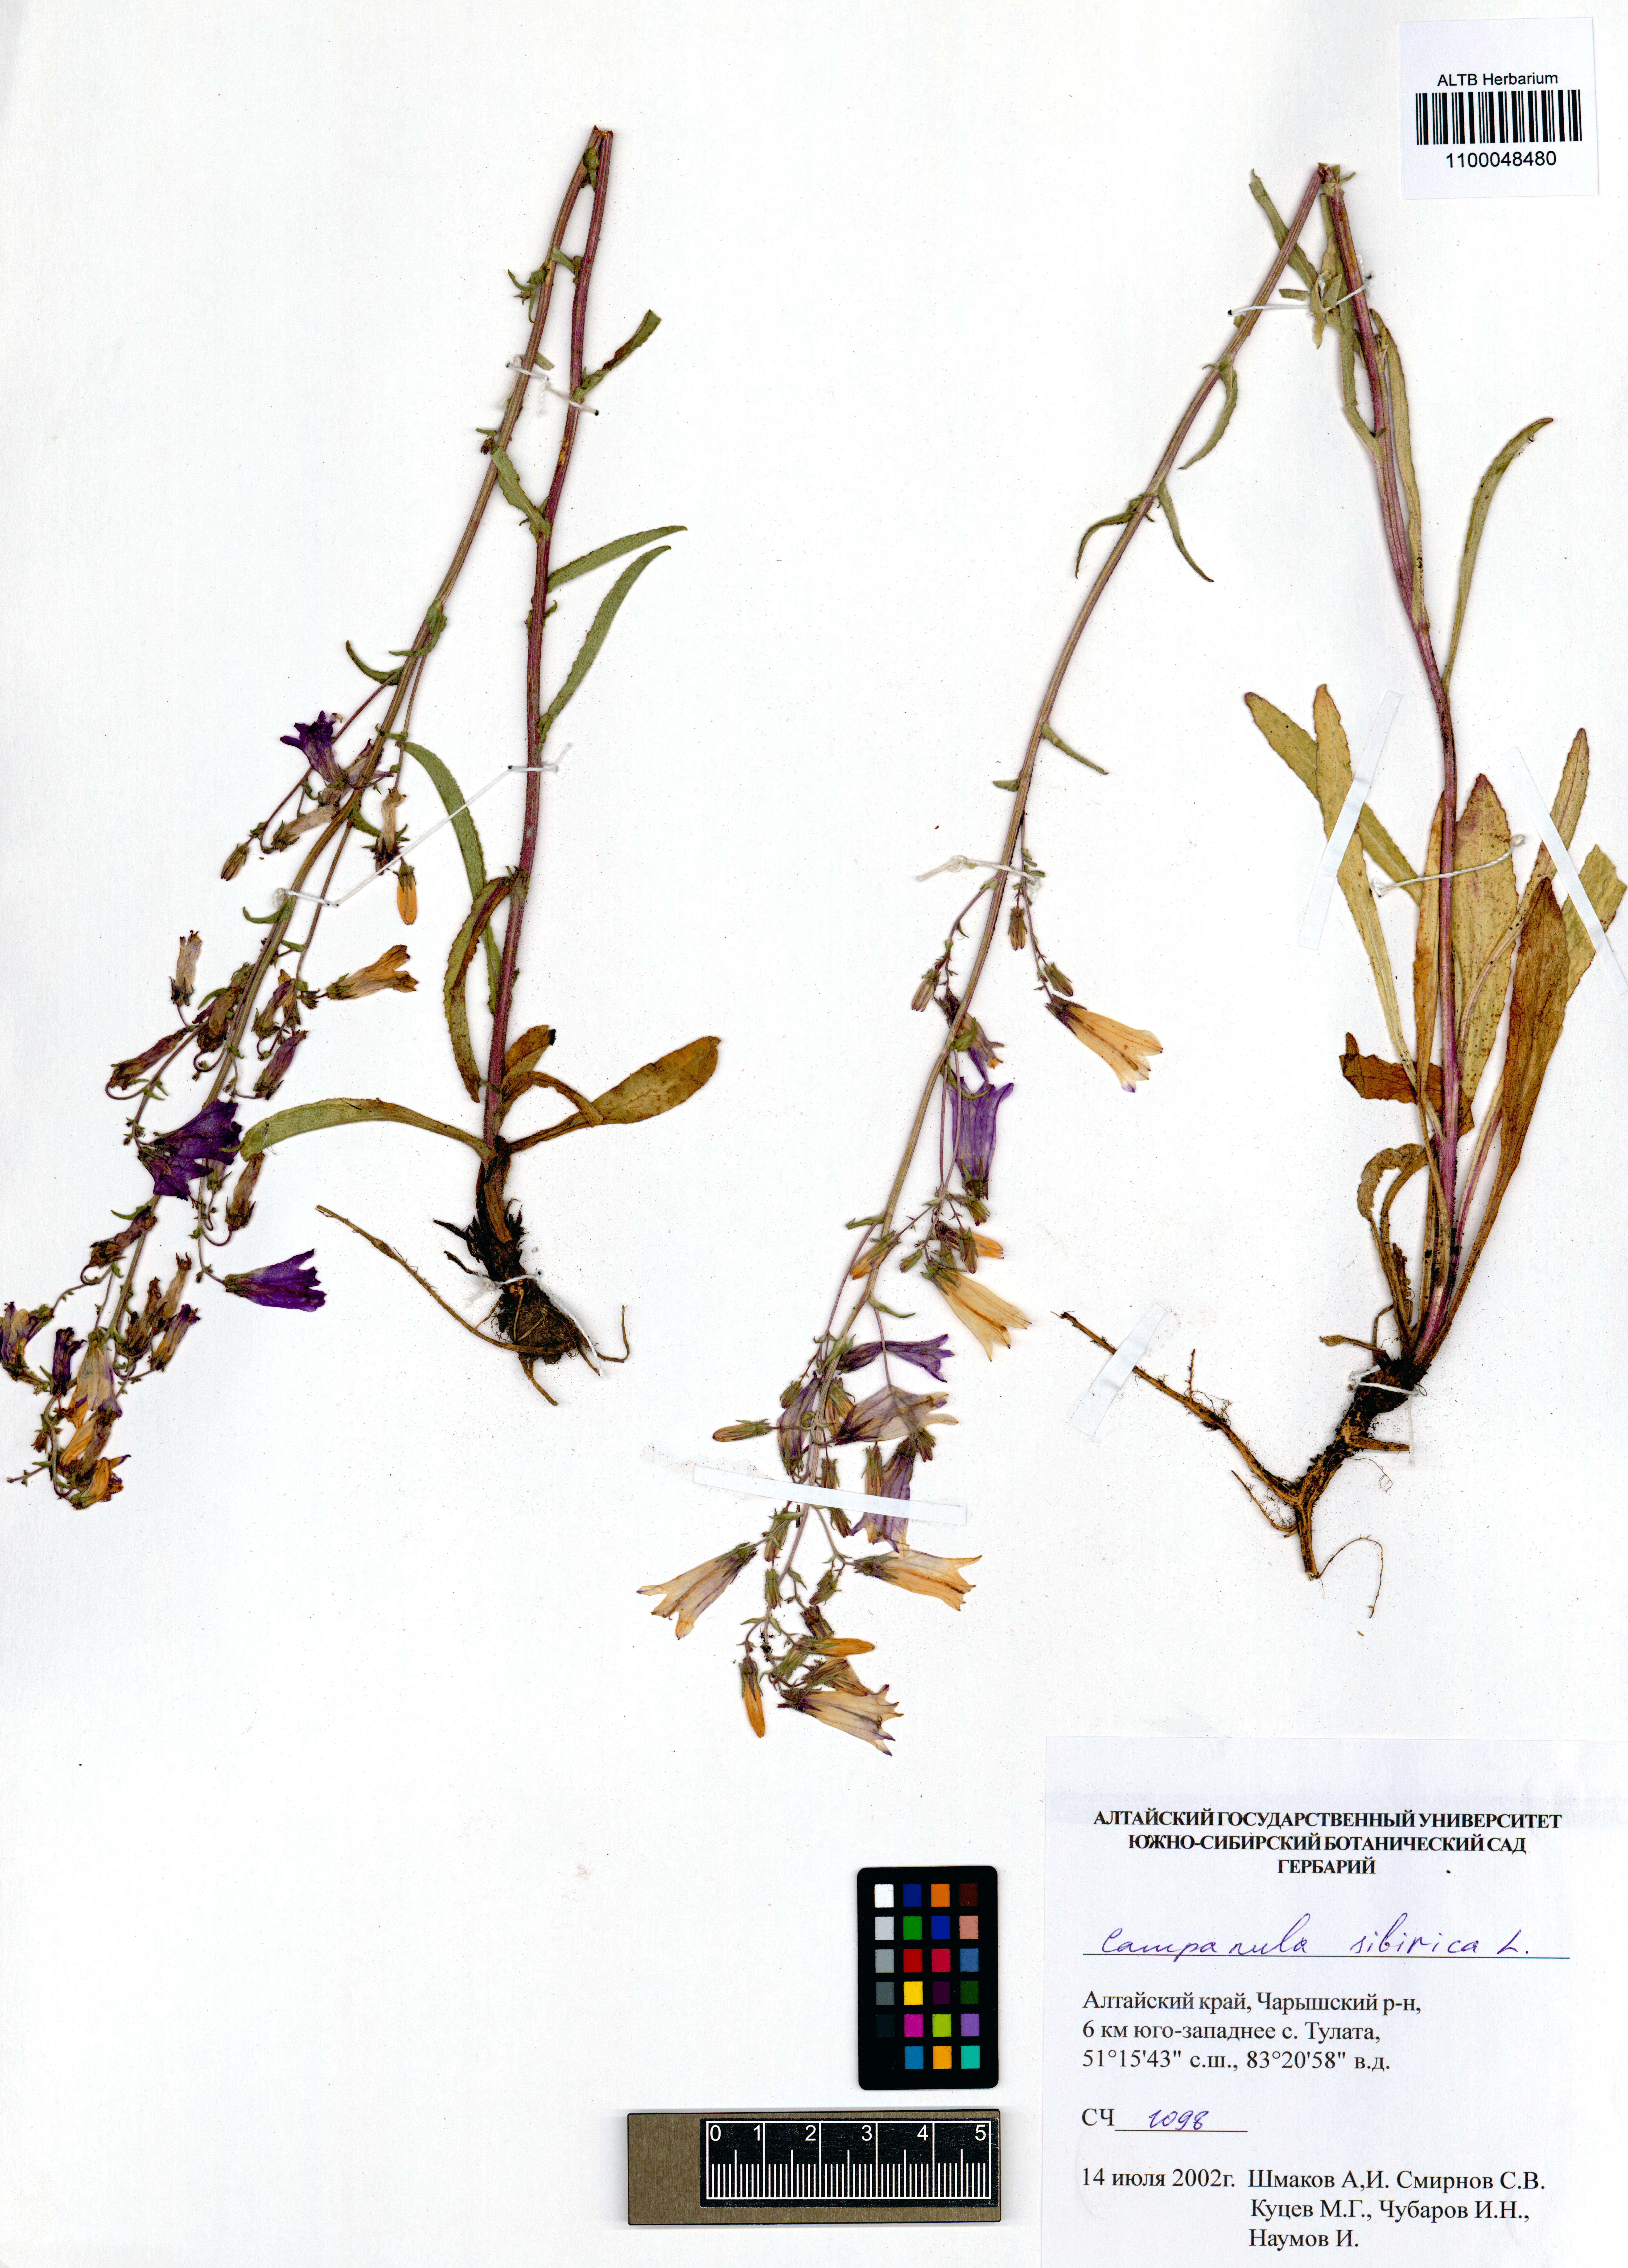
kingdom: Plantae
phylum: Tracheophyta
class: Magnoliopsida
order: Asterales
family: Campanulaceae
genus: Campanula
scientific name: Campanula sibirica
